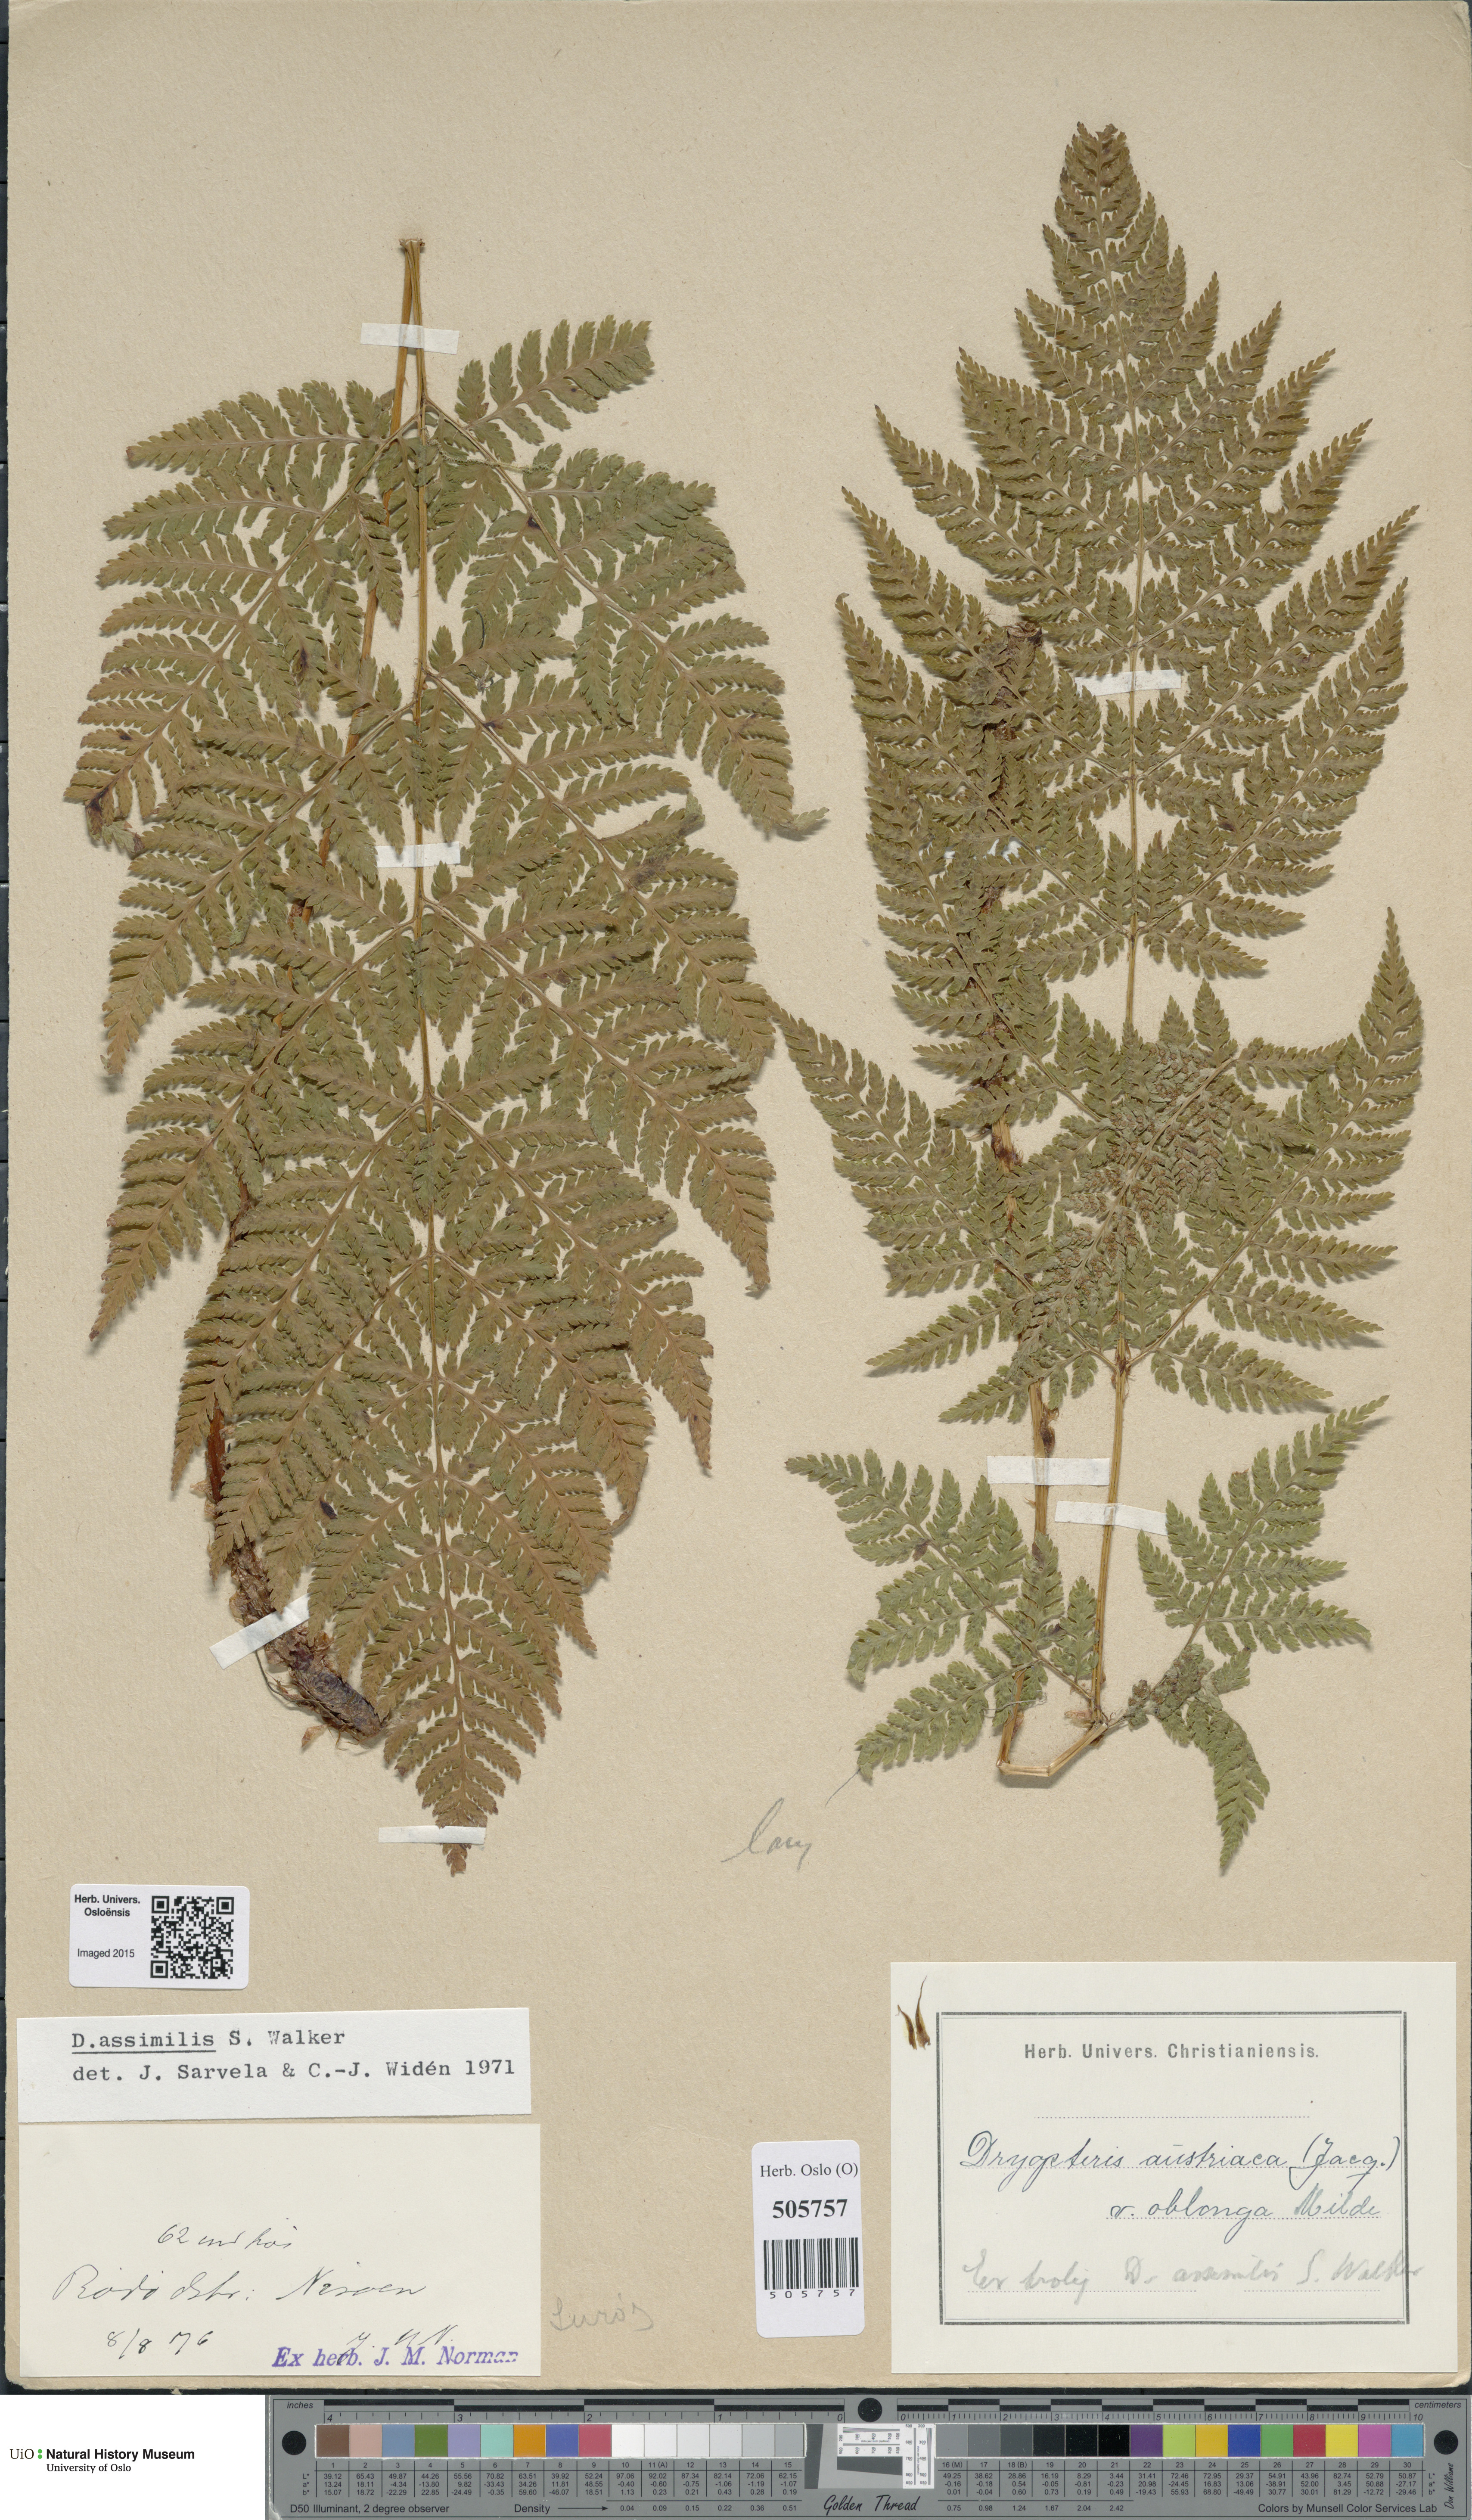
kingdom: Plantae
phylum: Tracheophyta
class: Polypodiopsida
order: Polypodiales
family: Dryopteridaceae
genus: Dryopteris
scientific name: Dryopteris expansa
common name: Northern buckler fern
